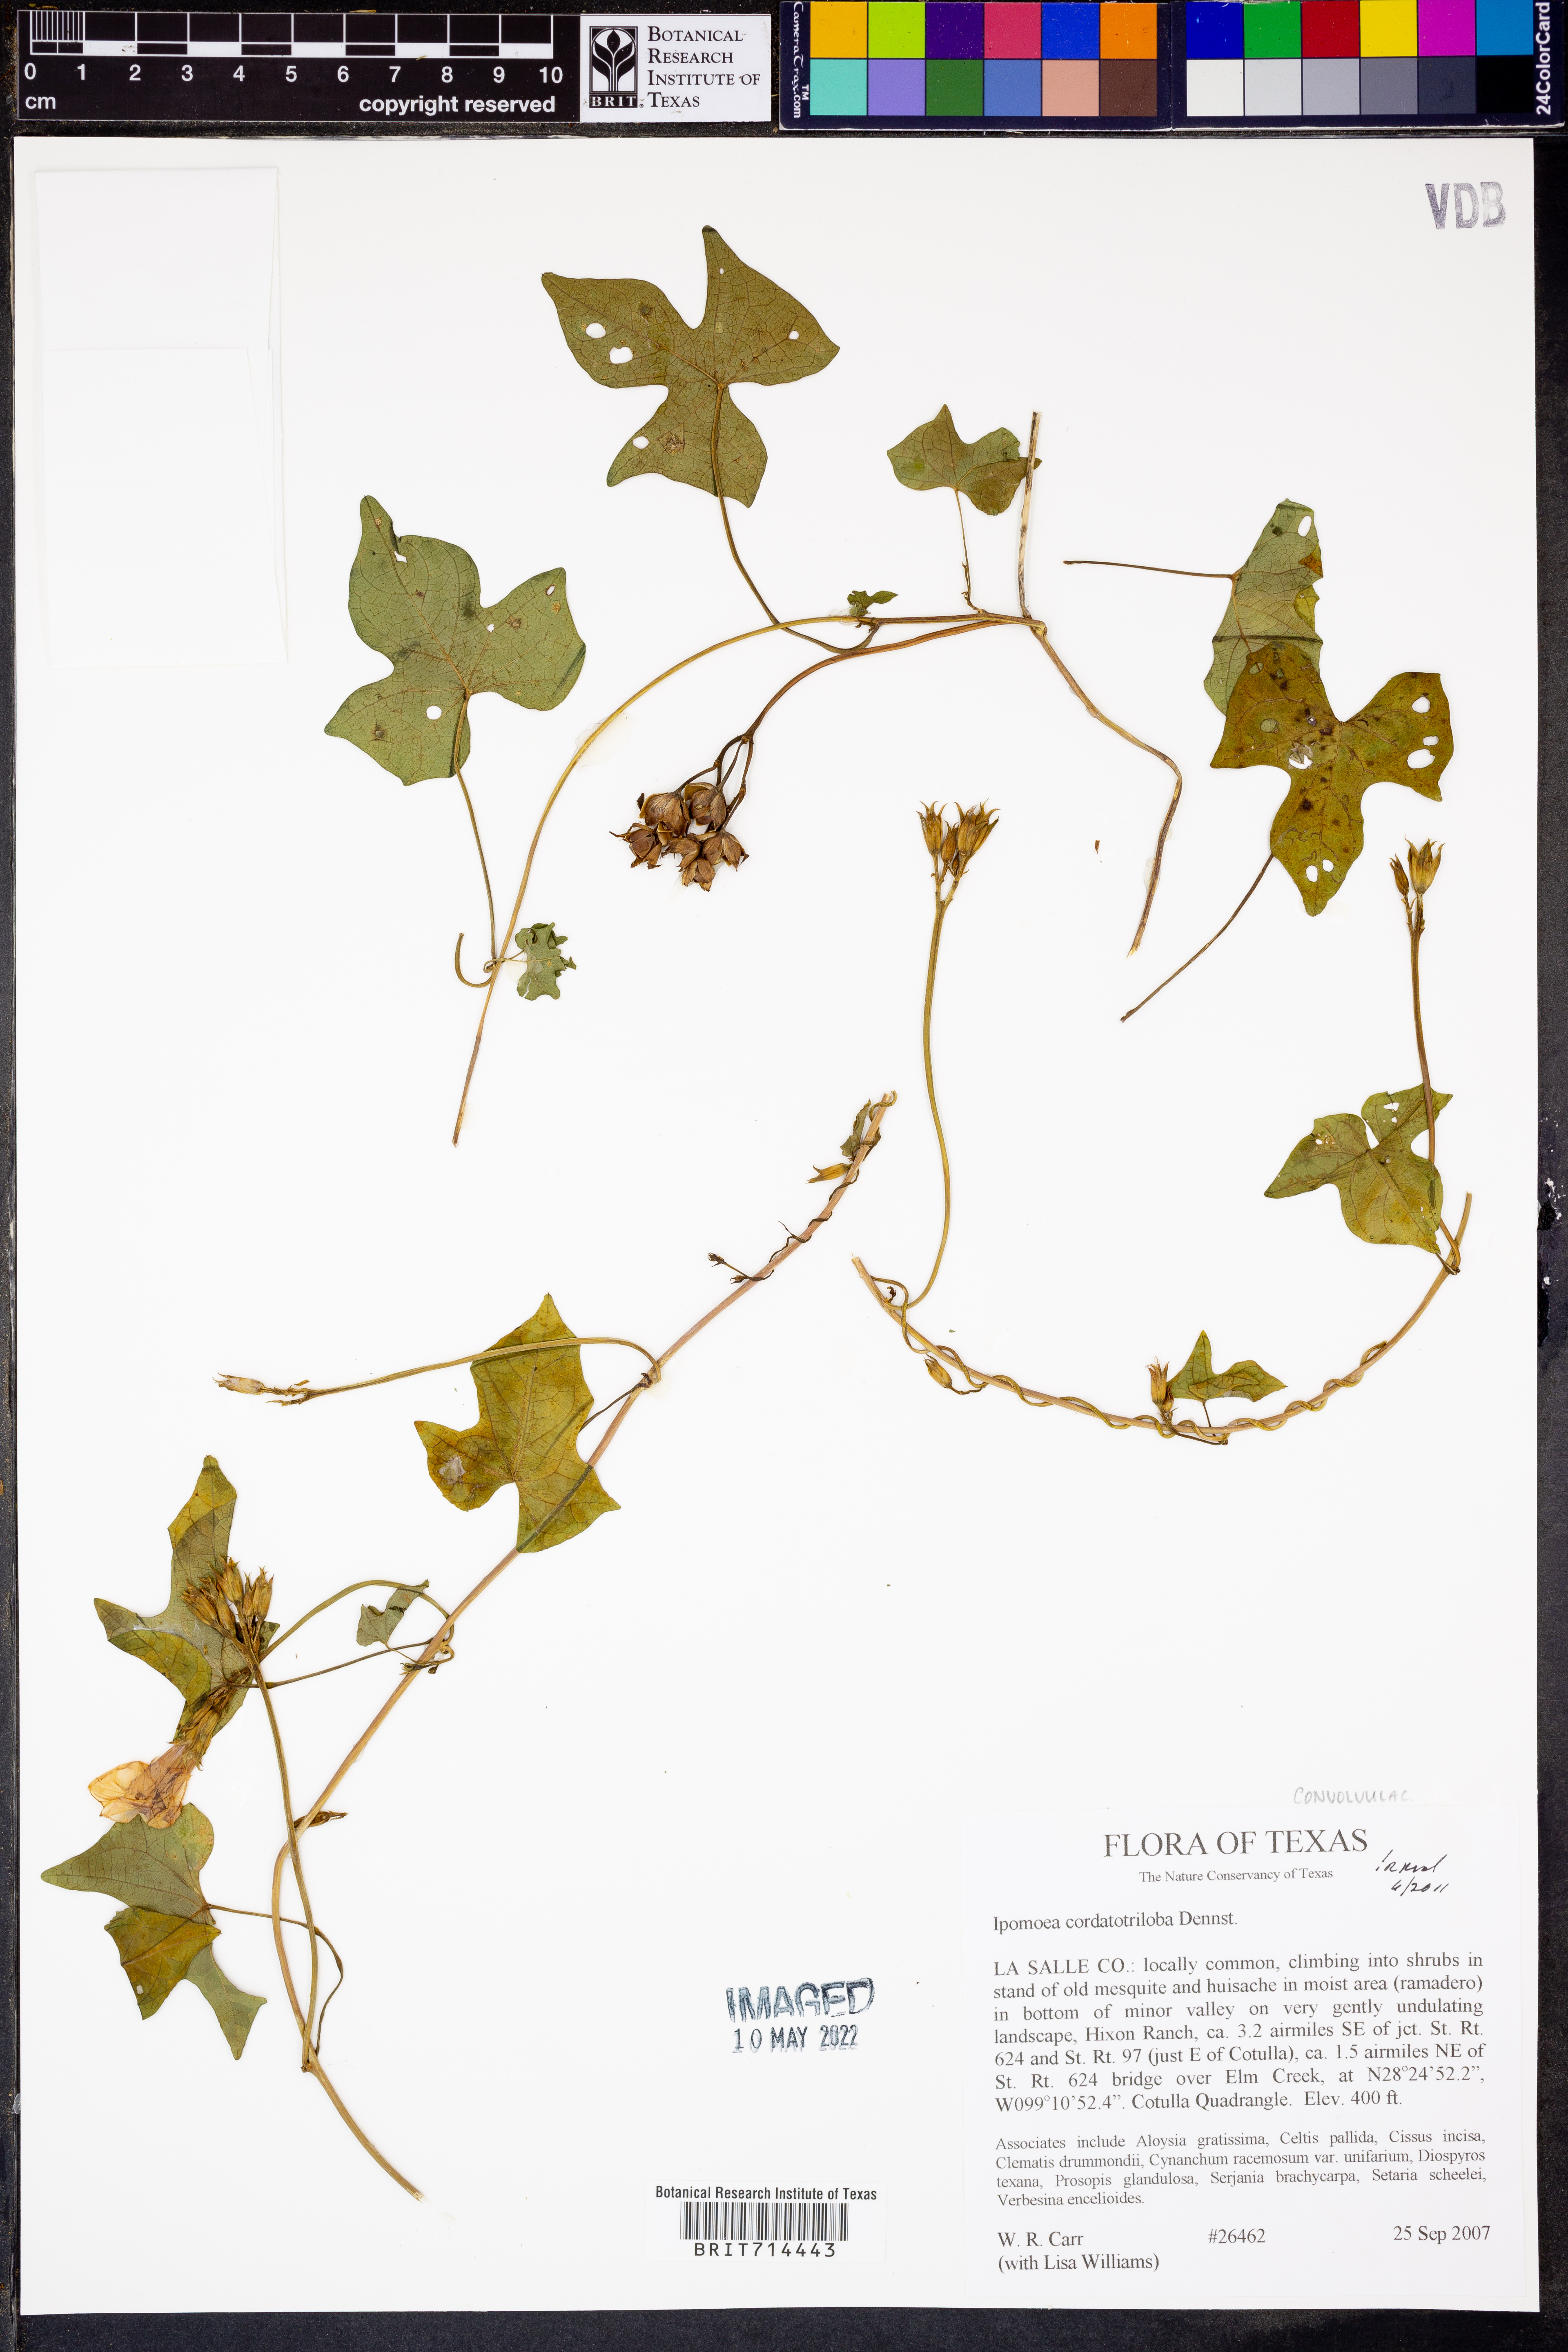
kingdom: Plantae
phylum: Tracheophyta
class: Magnoliopsida
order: Solanales
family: Convolvulaceae
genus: Ipomoea
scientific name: Ipomoea cordatotriloba
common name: Cotton morning glory
